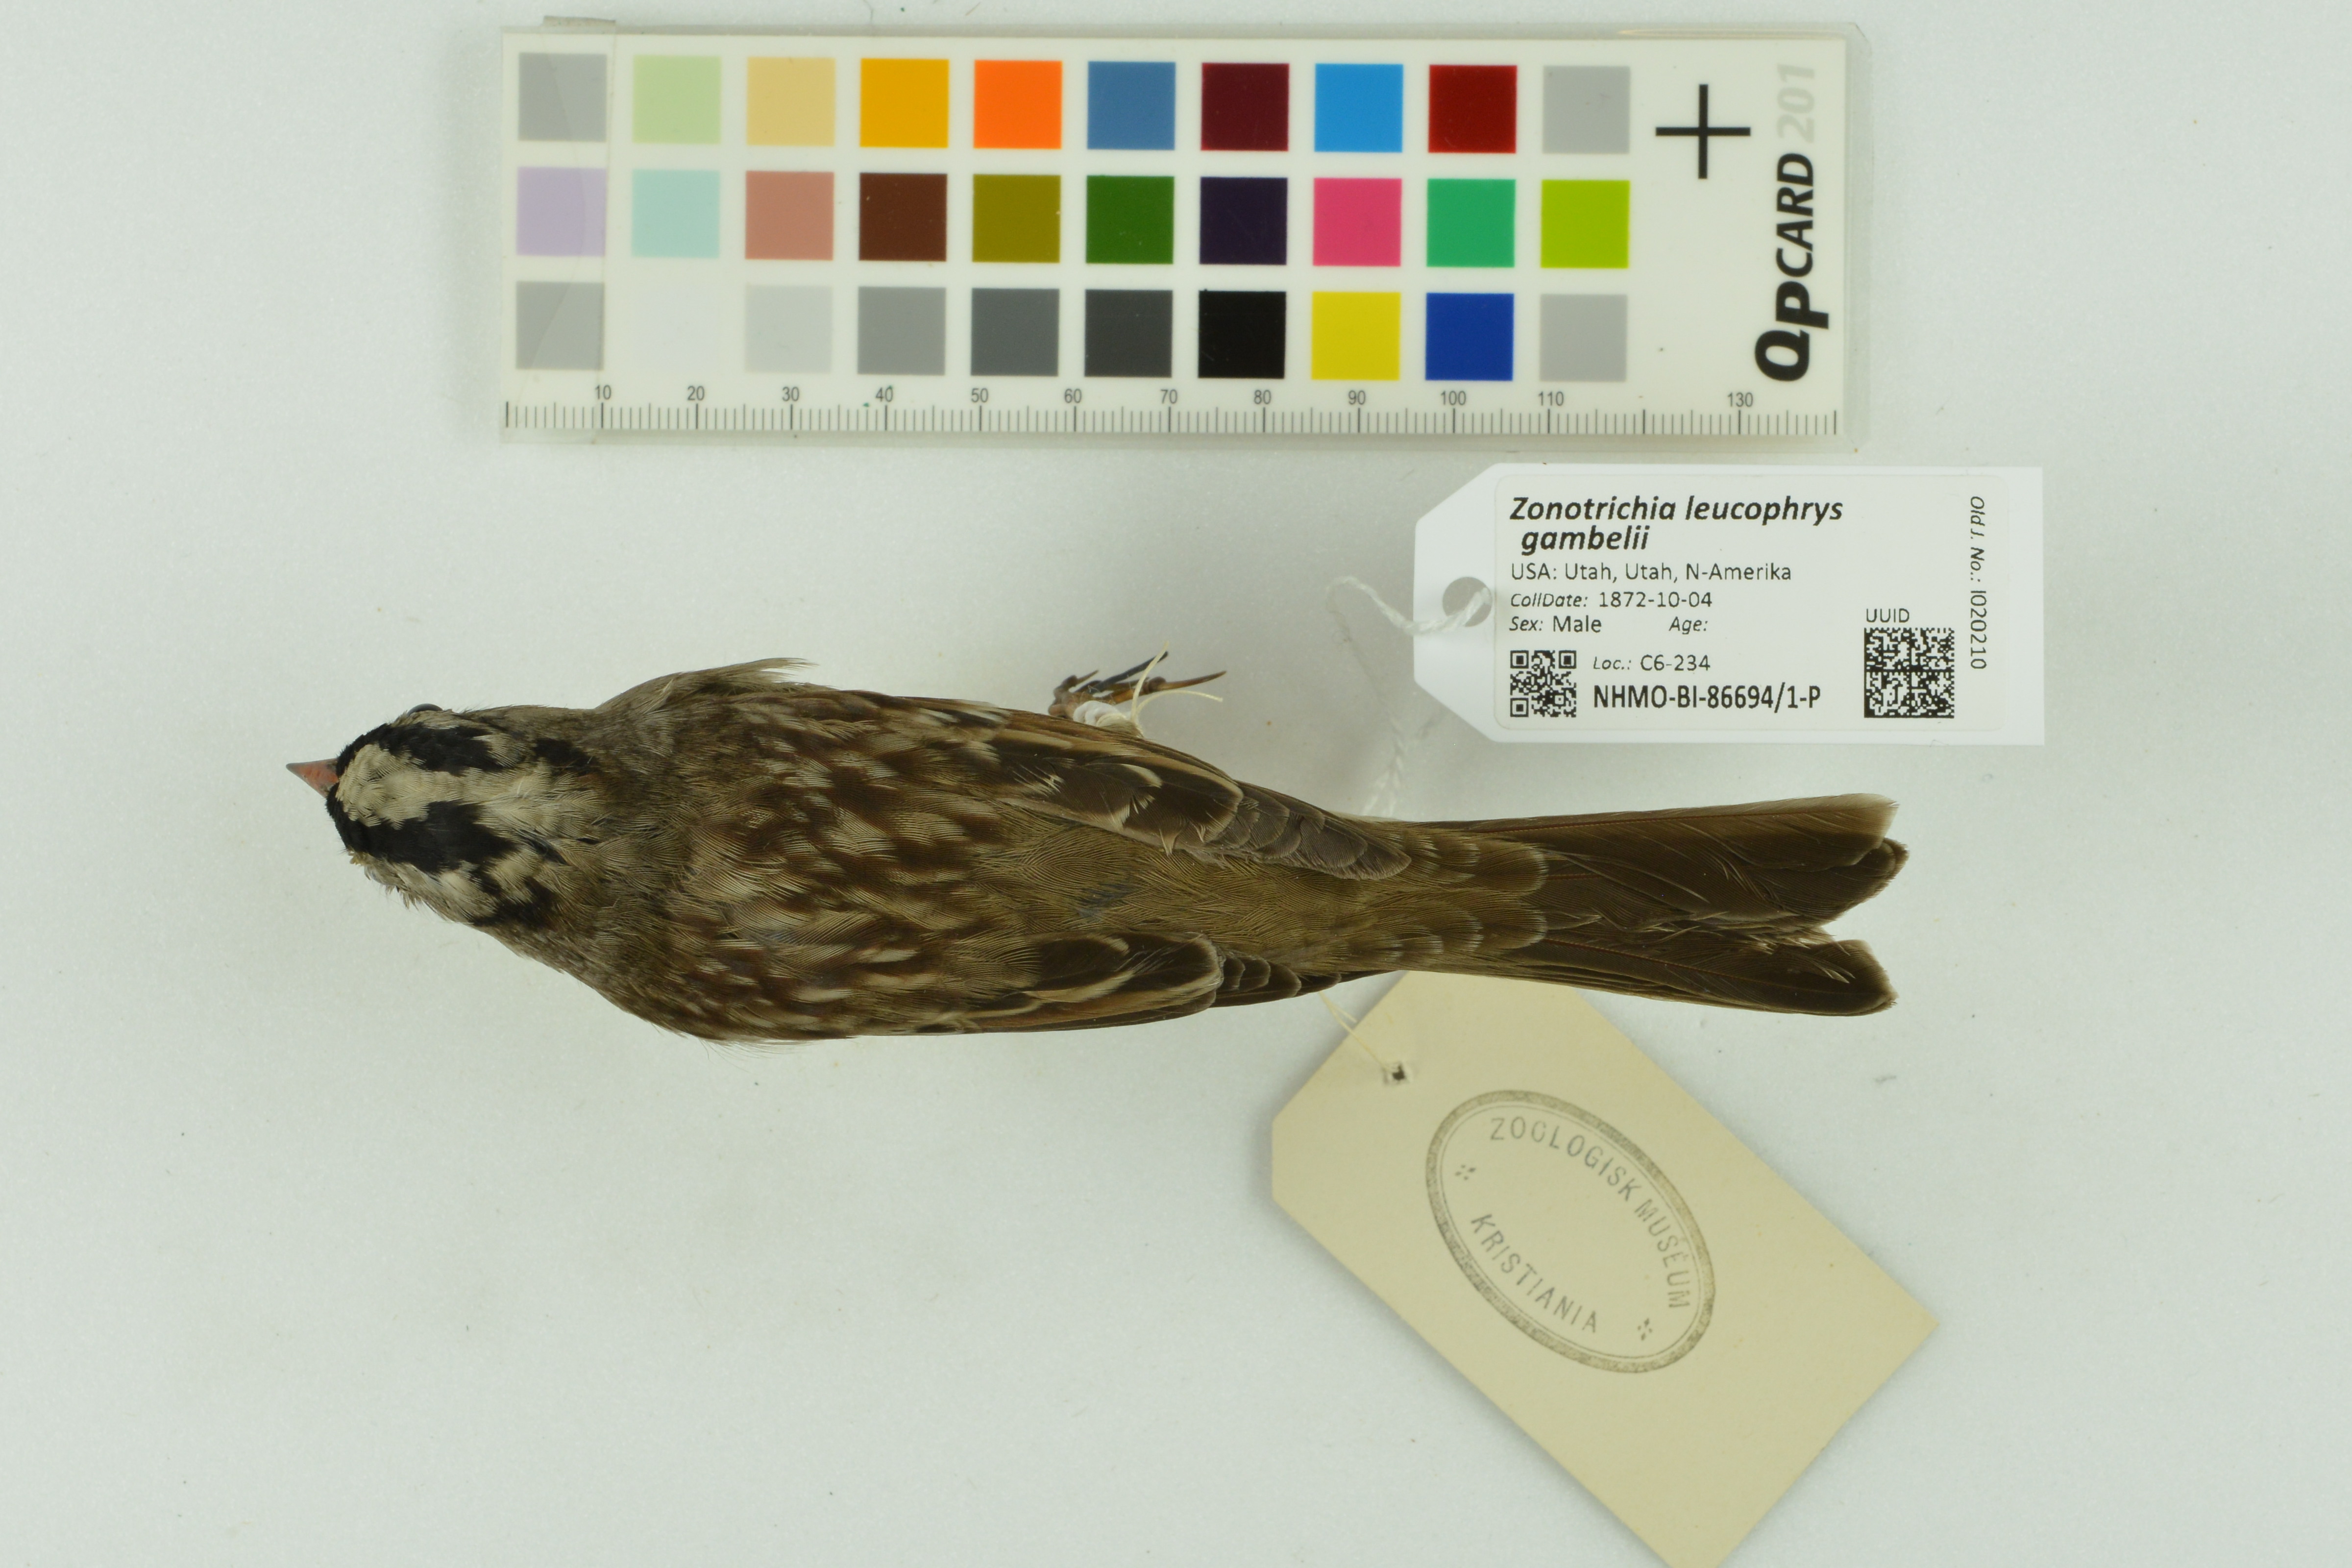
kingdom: Animalia
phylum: Chordata
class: Aves
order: Passeriformes
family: Passerellidae
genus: Zonotrichia
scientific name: Zonotrichia leucophrys
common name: White-crowned sparrow
